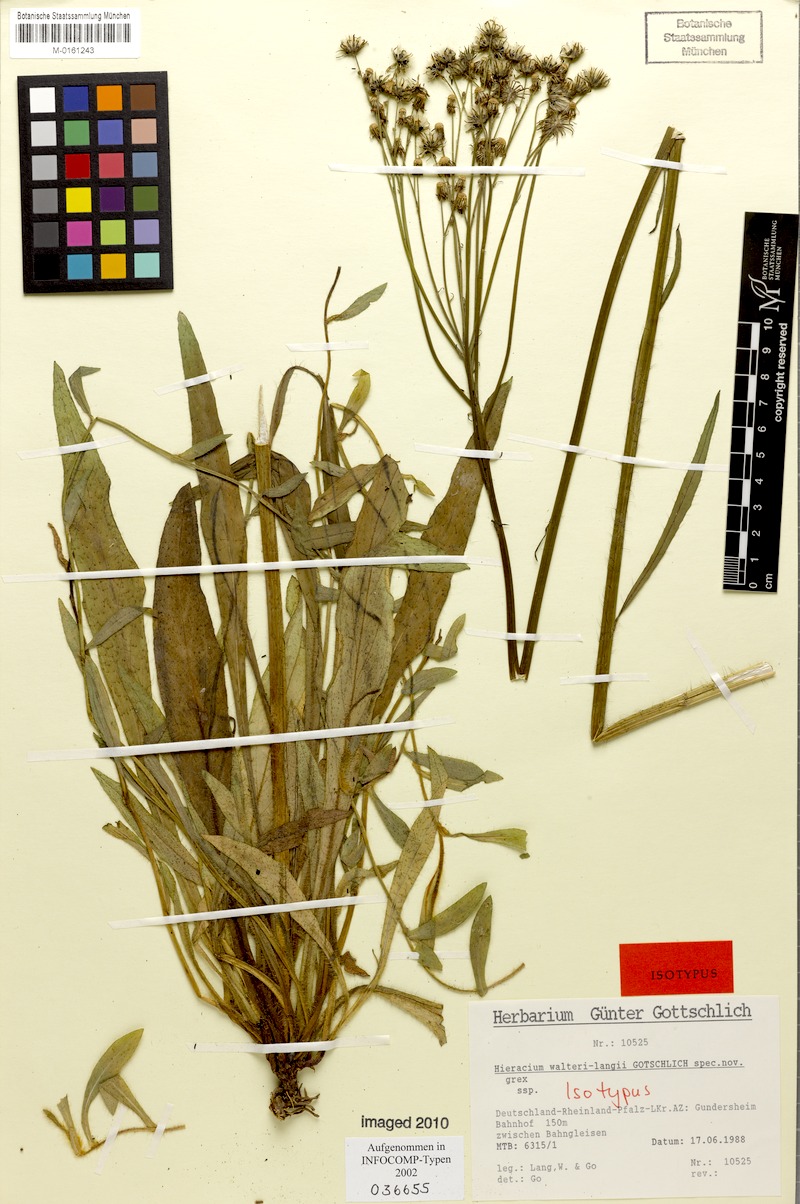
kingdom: Plantae
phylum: Tracheophyta
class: Magnoliopsida
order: Asterales
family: Asteraceae
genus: Pilosella
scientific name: Pilosella walteri-langii
